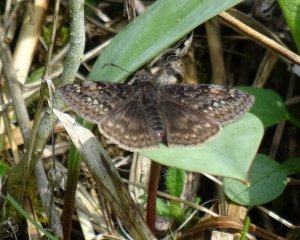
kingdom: Animalia
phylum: Arthropoda
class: Insecta
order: Lepidoptera
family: Hesperiidae
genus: Gesta
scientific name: Gesta
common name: Juvenal's Duskywing
